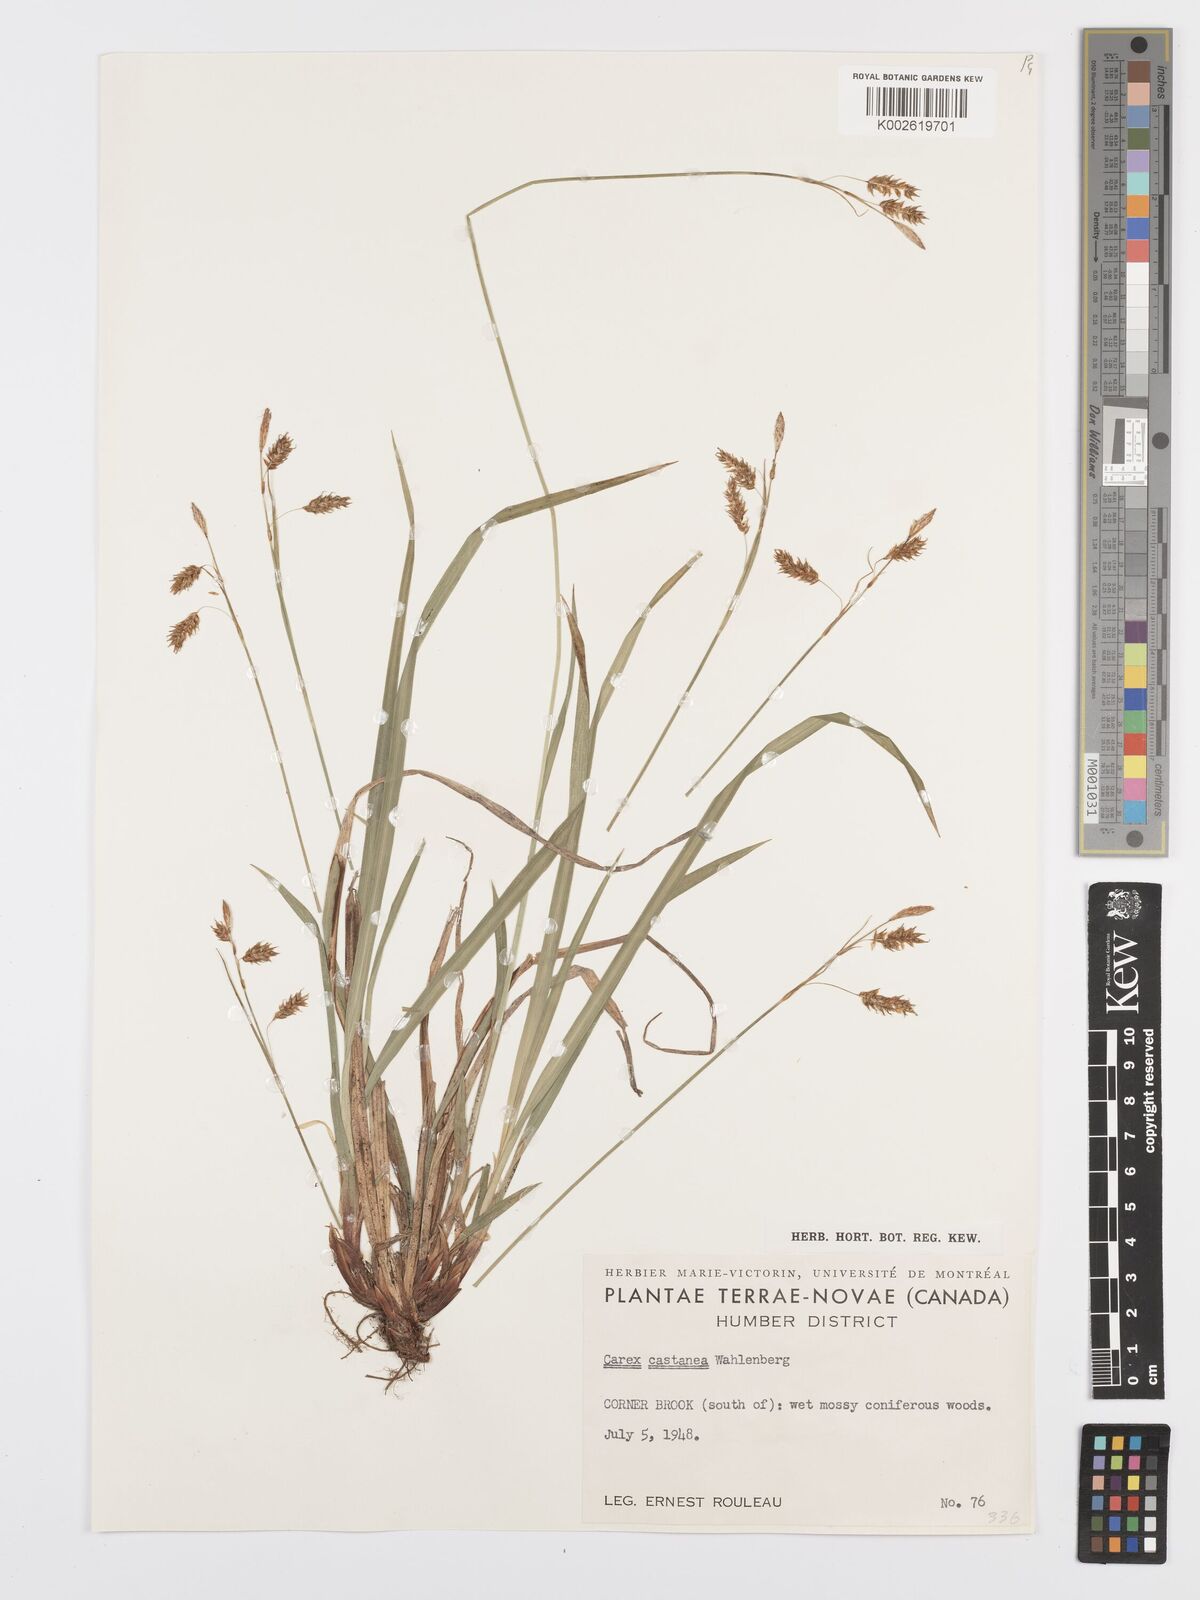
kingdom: Plantae
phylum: Tracheophyta
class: Liliopsida
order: Poales
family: Cyperaceae
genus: Carex
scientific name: Carex castanea
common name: Chestnut sedge
